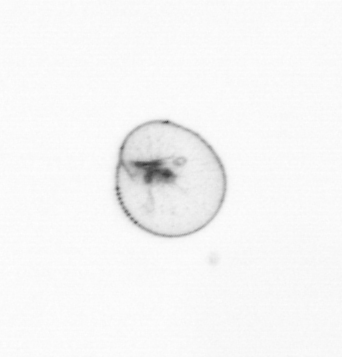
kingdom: Chromista
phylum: Myzozoa
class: Dinophyceae
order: Noctilucales
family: Noctilucaceae
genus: Noctiluca
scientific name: Noctiluca scintillans
